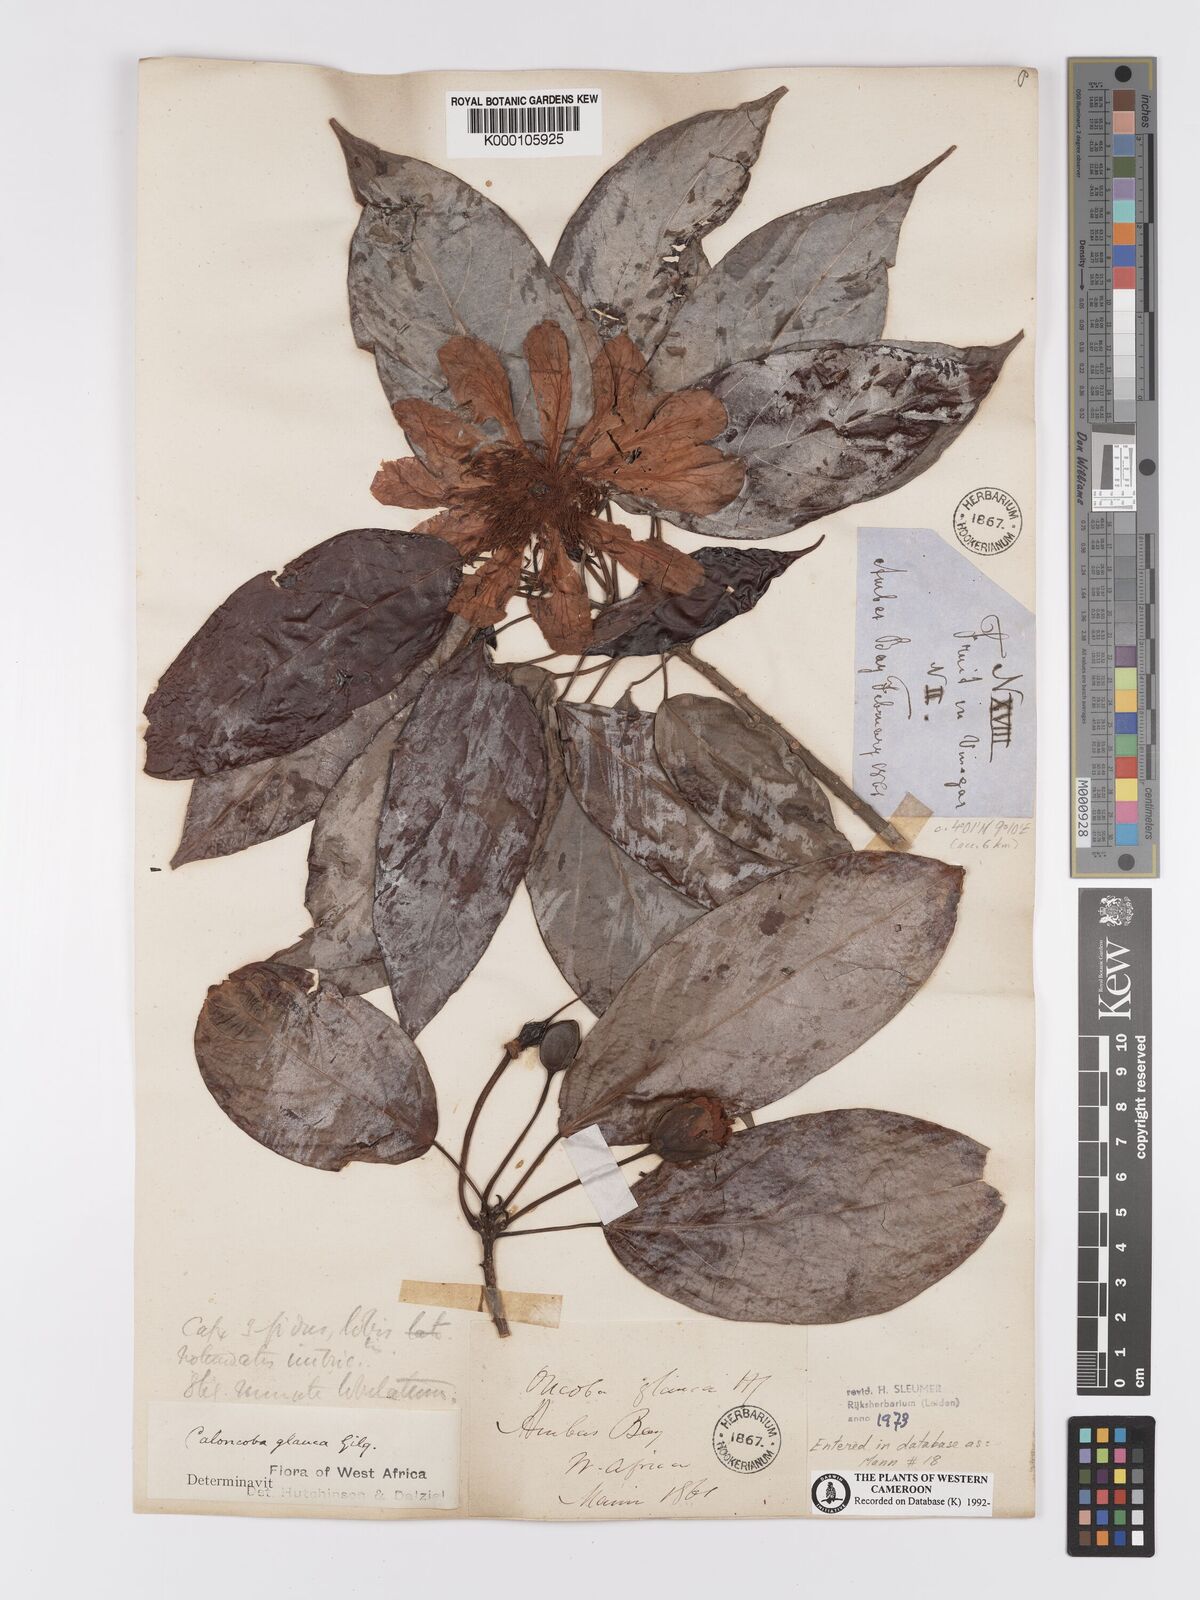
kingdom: Plantae
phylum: Tracheophyta
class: Magnoliopsida
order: Malpighiales
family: Achariaceae
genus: Caloncoba
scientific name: Caloncoba glauca
